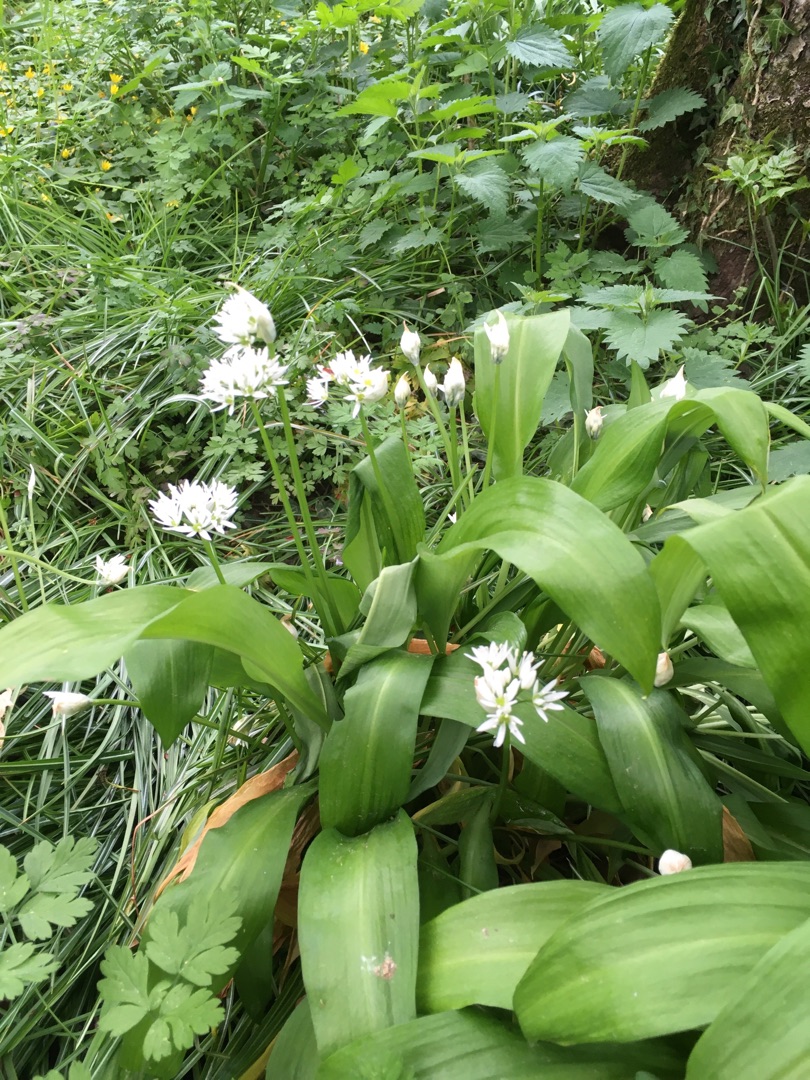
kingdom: Plantae
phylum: Tracheophyta
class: Liliopsida
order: Asparagales
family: Amaryllidaceae
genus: Allium
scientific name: Allium ursinum
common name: Rams-løg
